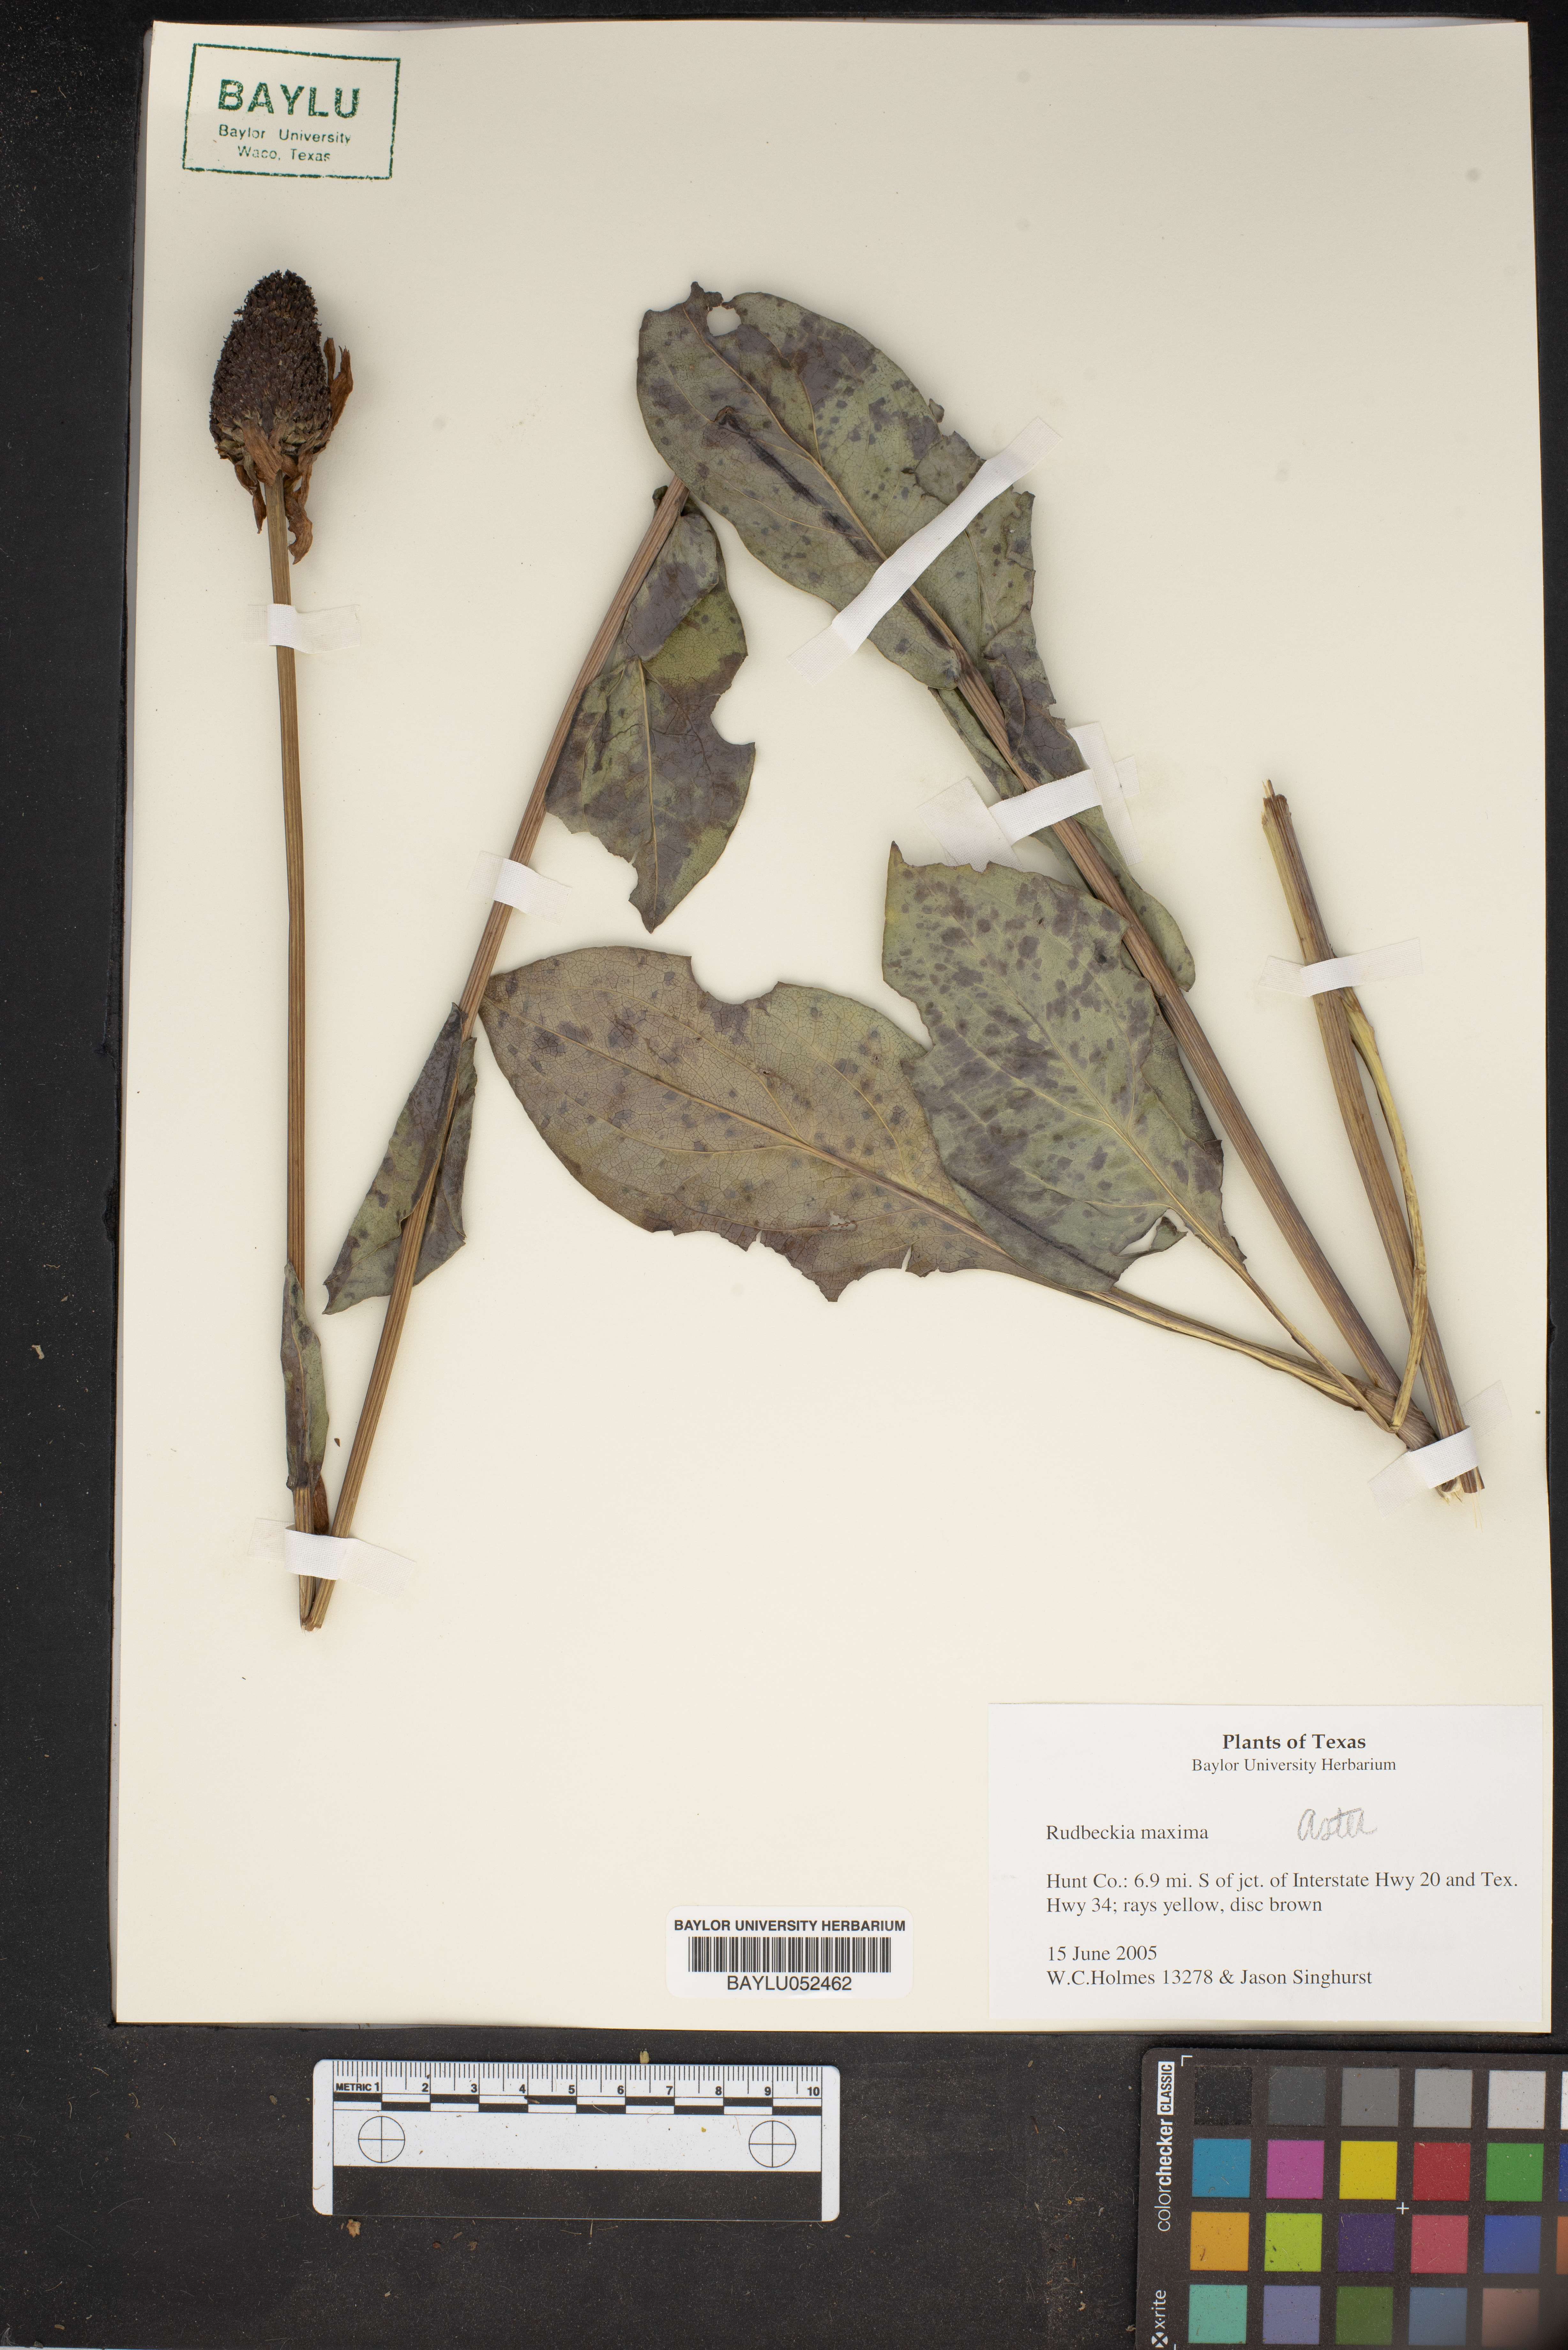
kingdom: Plantae
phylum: Tracheophyta
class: Magnoliopsida
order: Asterales
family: Asteraceae
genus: Rudbeckia
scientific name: Rudbeckia maxima
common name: Cabbage coneflower
